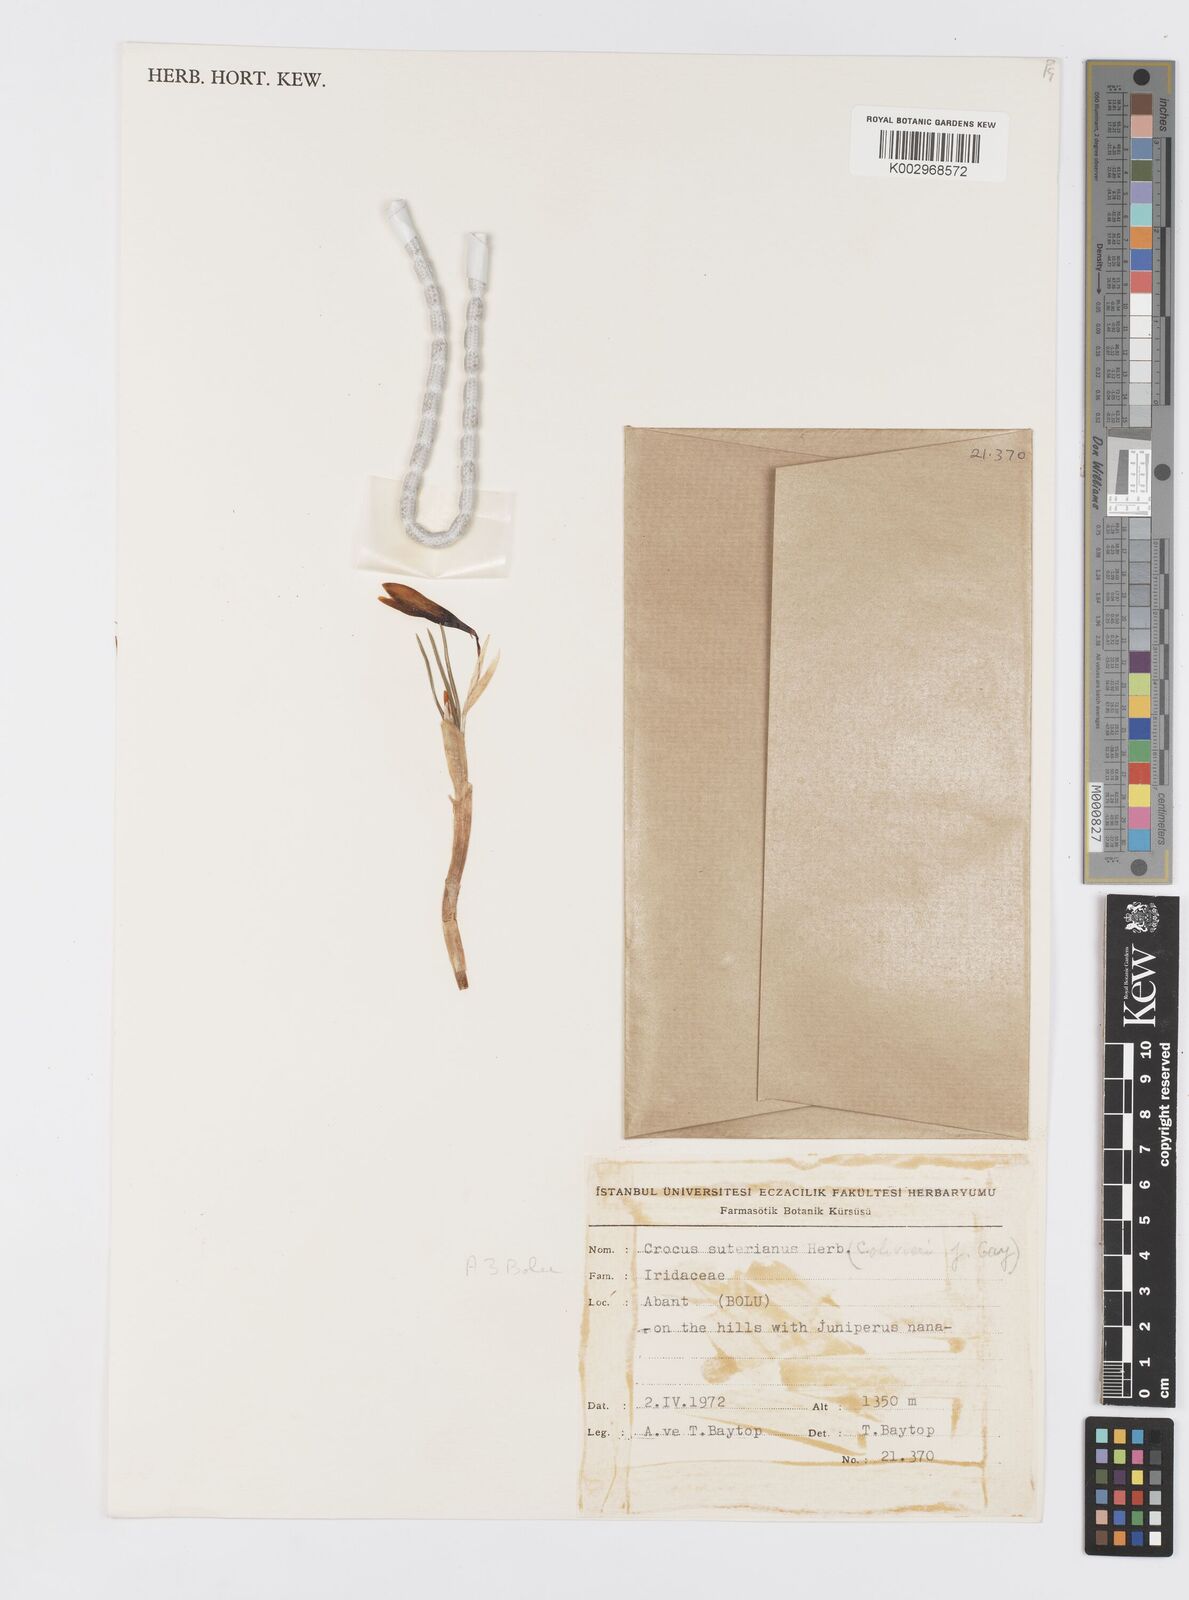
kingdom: Plantae
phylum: Tracheophyta
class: Liliopsida
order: Asparagales
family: Iridaceae
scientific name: Iridaceae
